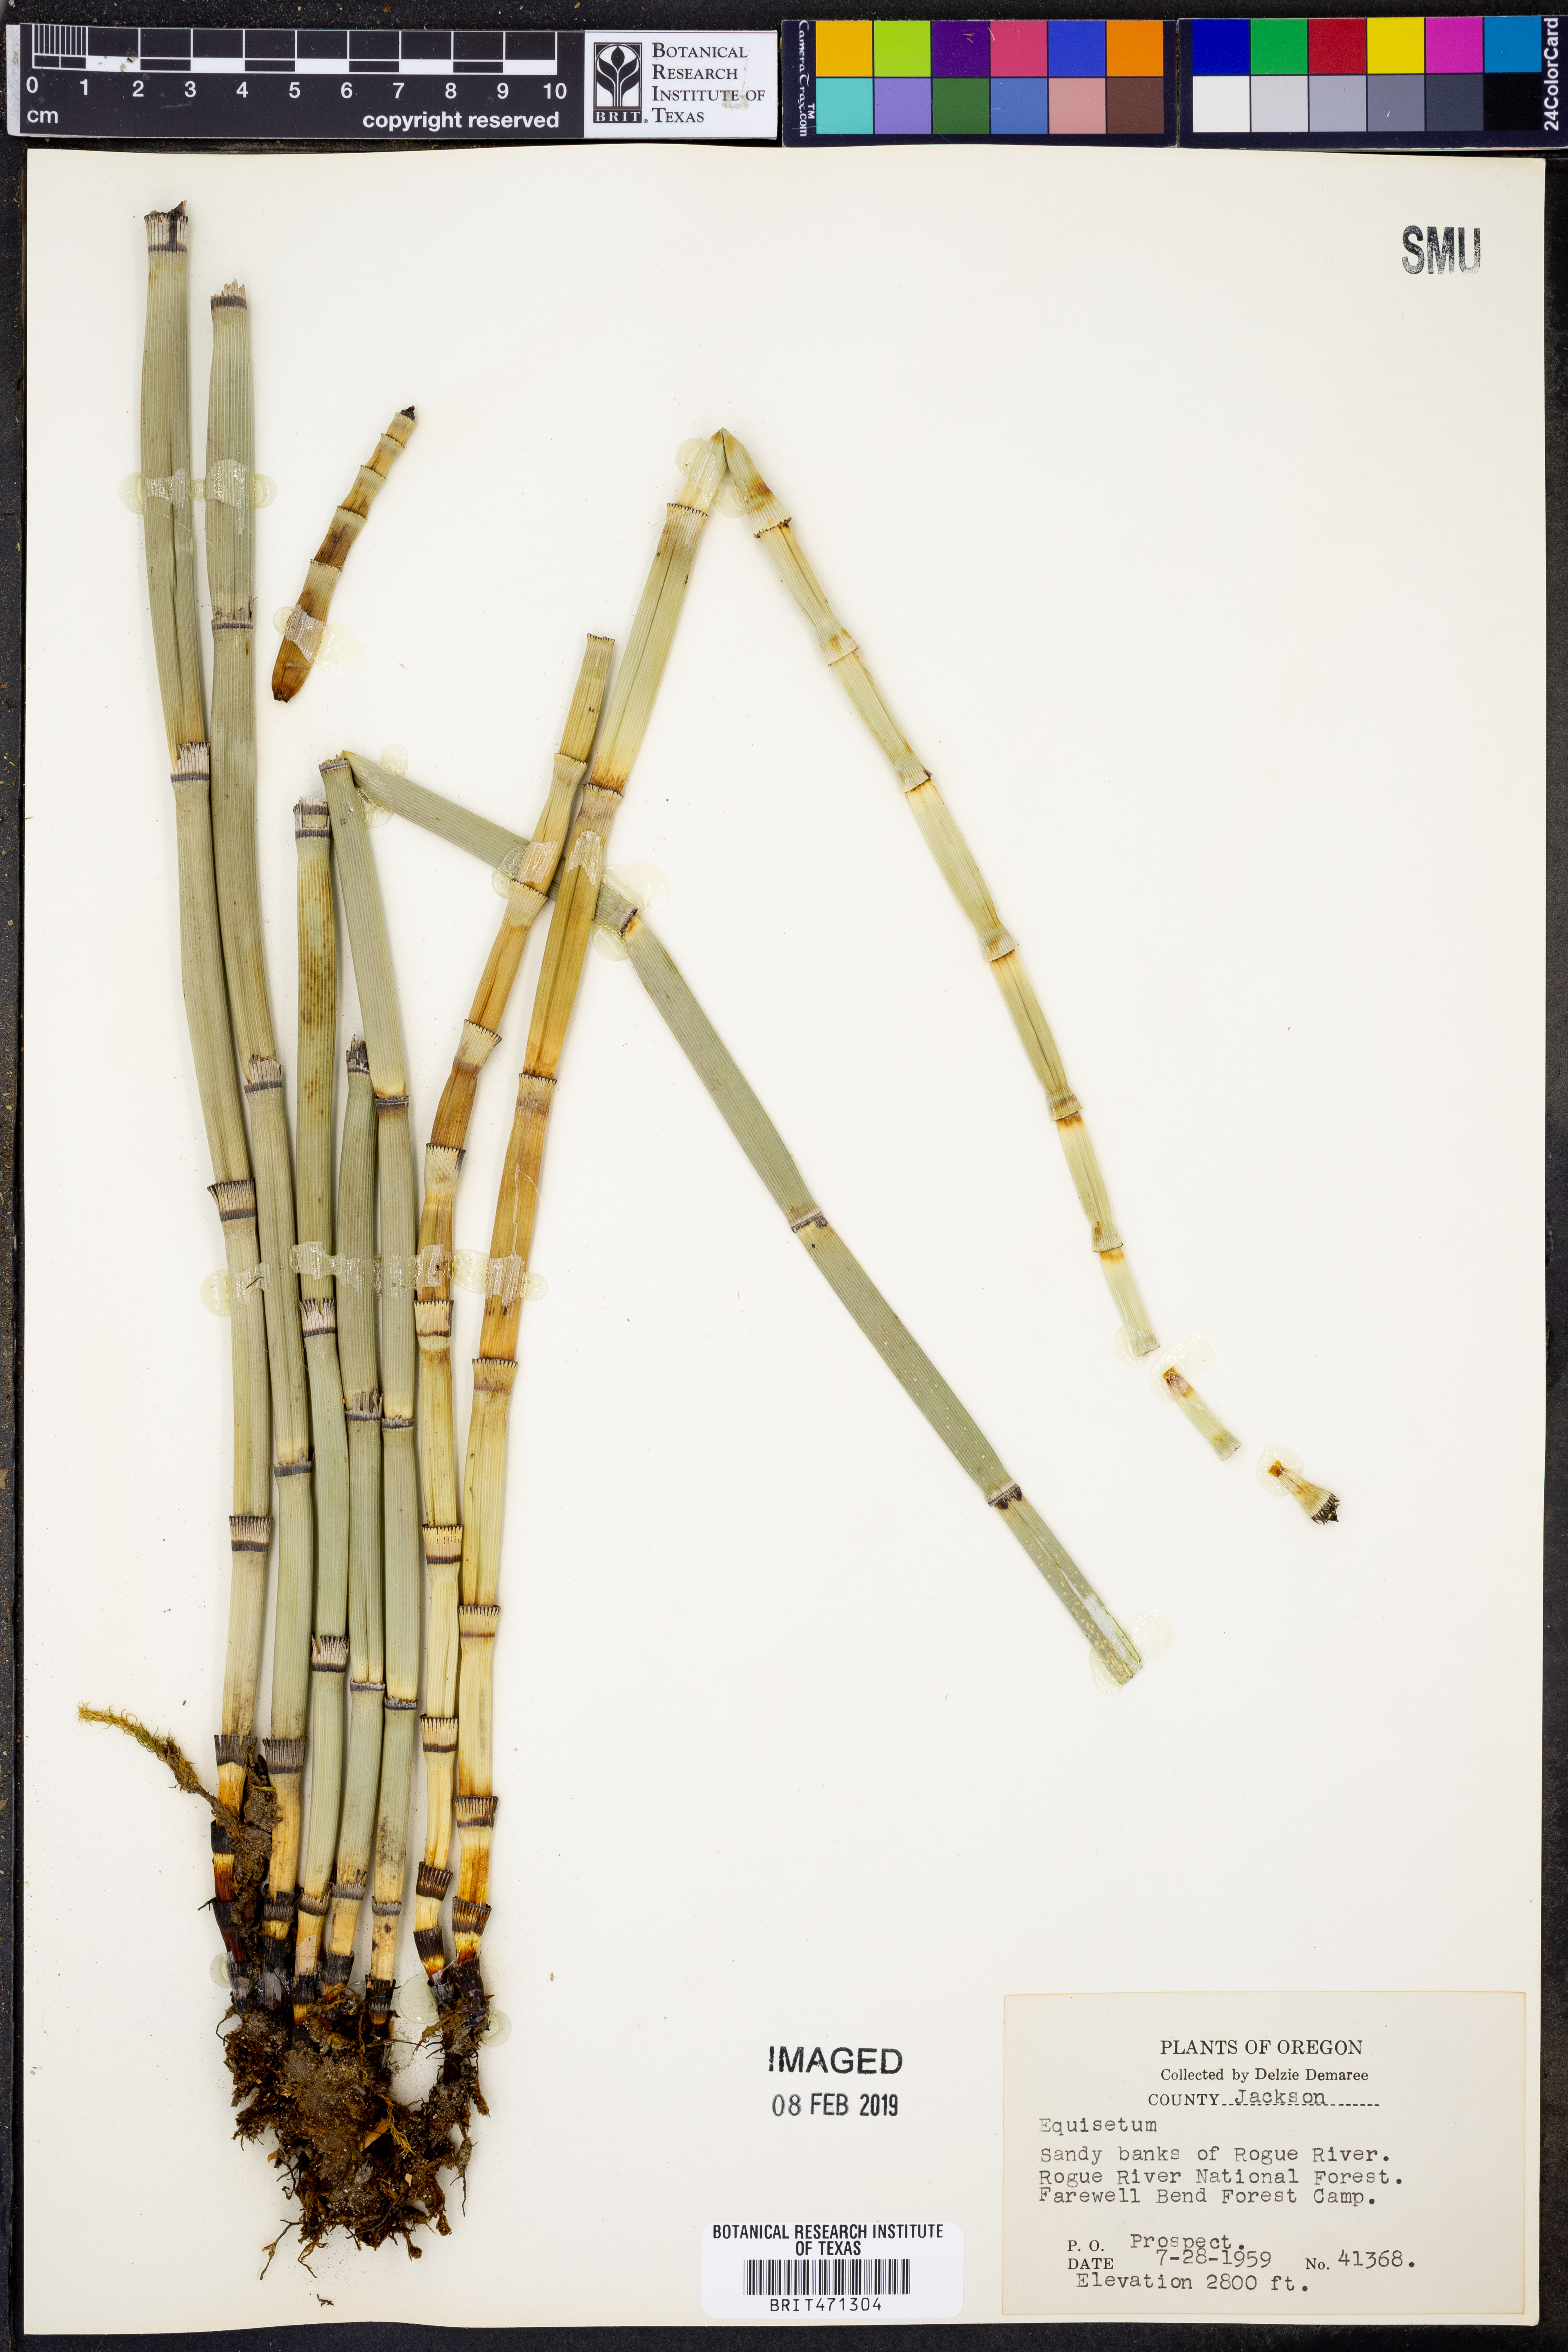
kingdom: Plantae
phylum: Tracheophyta
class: Polypodiopsida
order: Equisetales
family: Equisetaceae
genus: Equisetum
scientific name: Equisetum
